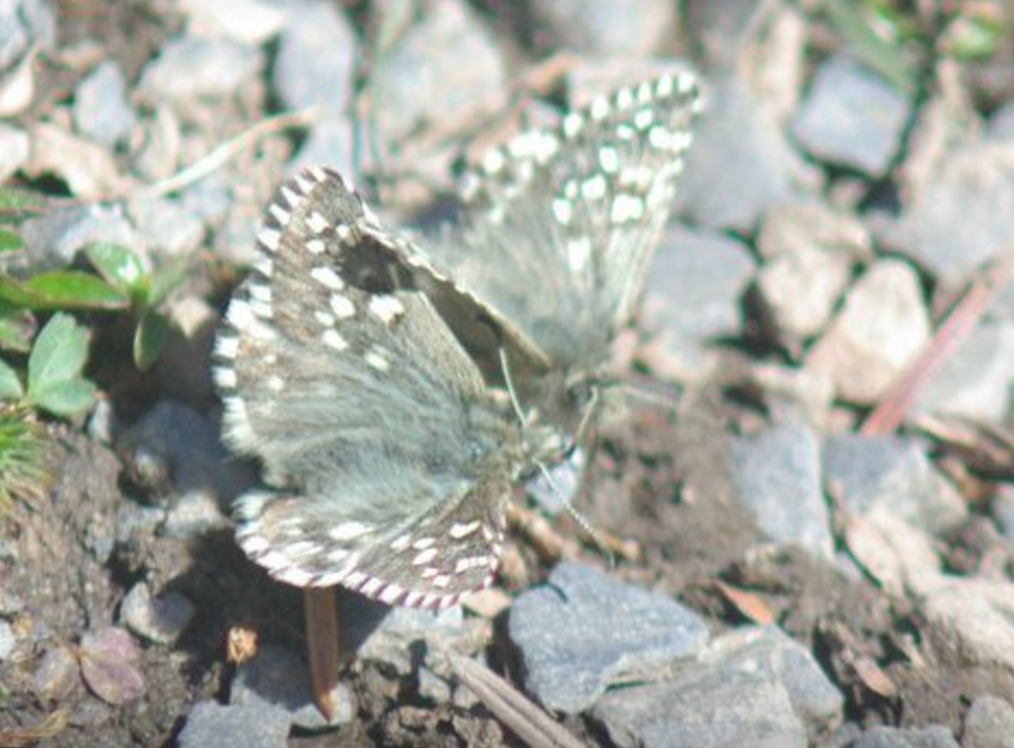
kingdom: Animalia
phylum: Arthropoda
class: Insecta
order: Lepidoptera
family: Hesperiidae
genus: Pyrgus
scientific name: Pyrgus centaureae
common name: Grizzled Skipper
